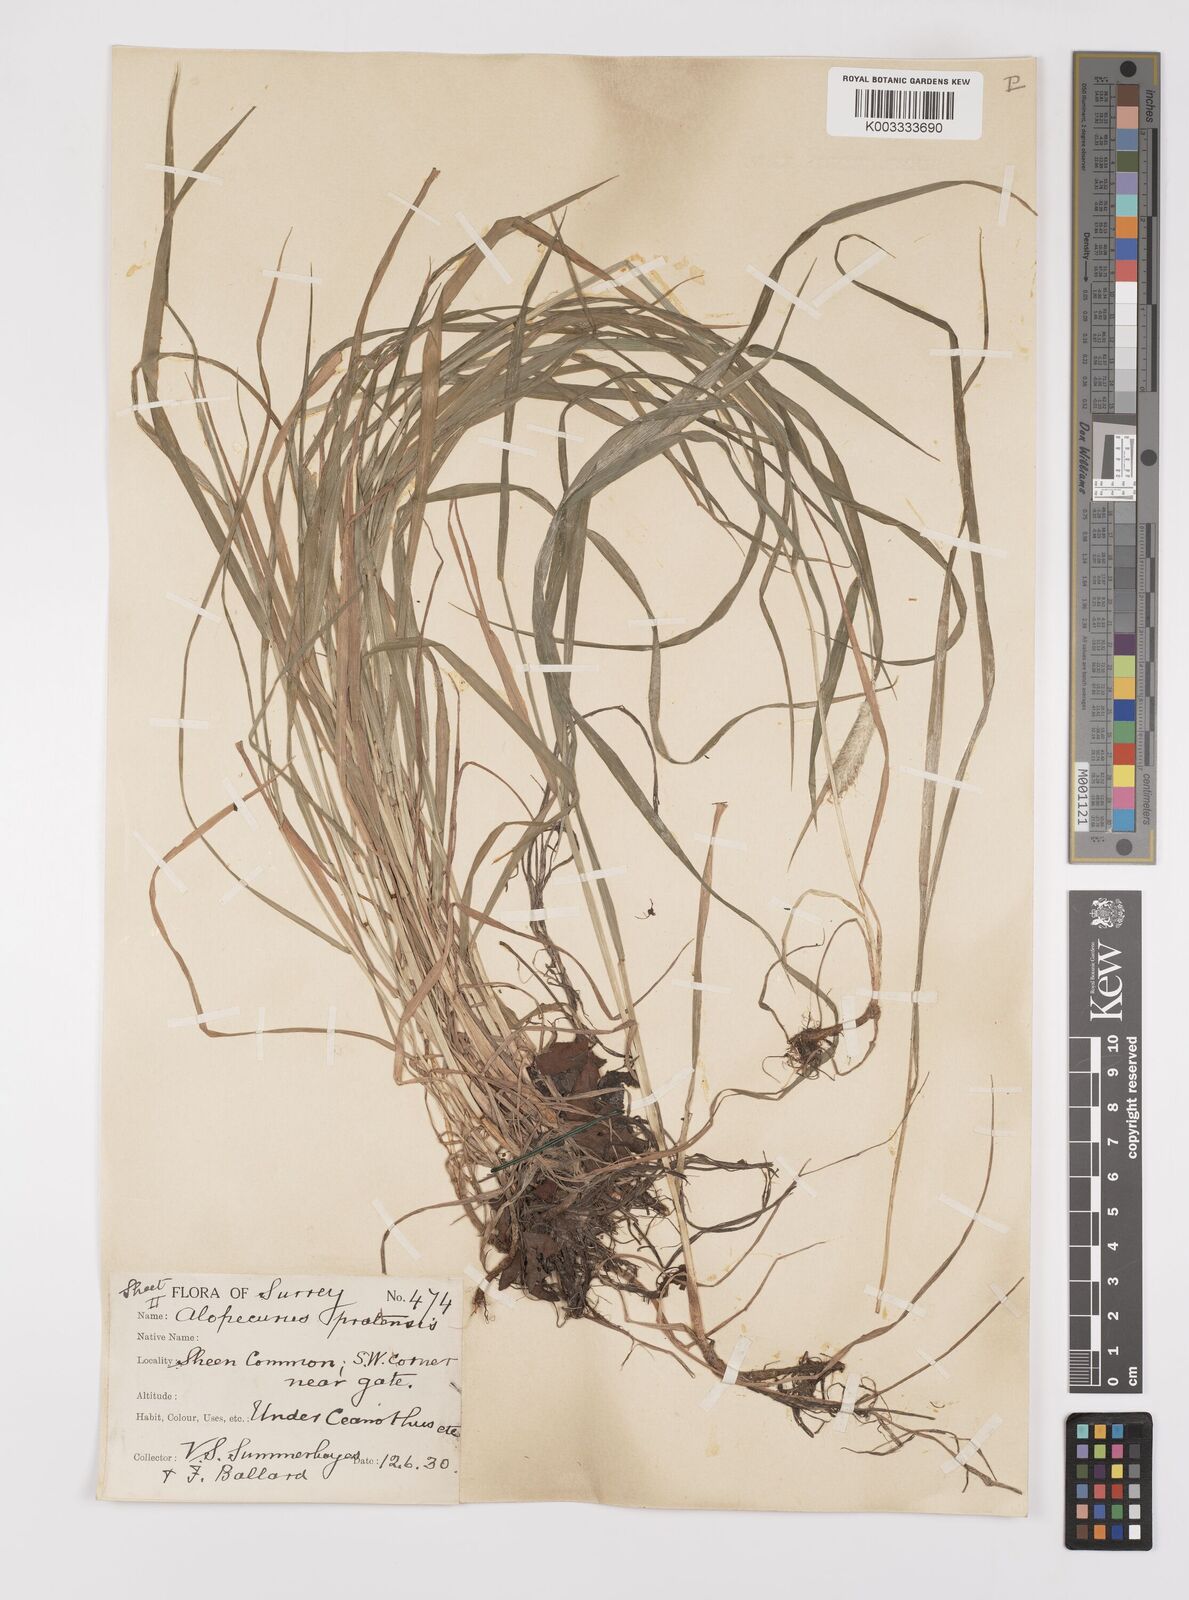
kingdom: Plantae
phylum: Tracheophyta
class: Liliopsida
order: Poales
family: Poaceae
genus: Alopecurus
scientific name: Alopecurus pratensis
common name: Meadow foxtail
